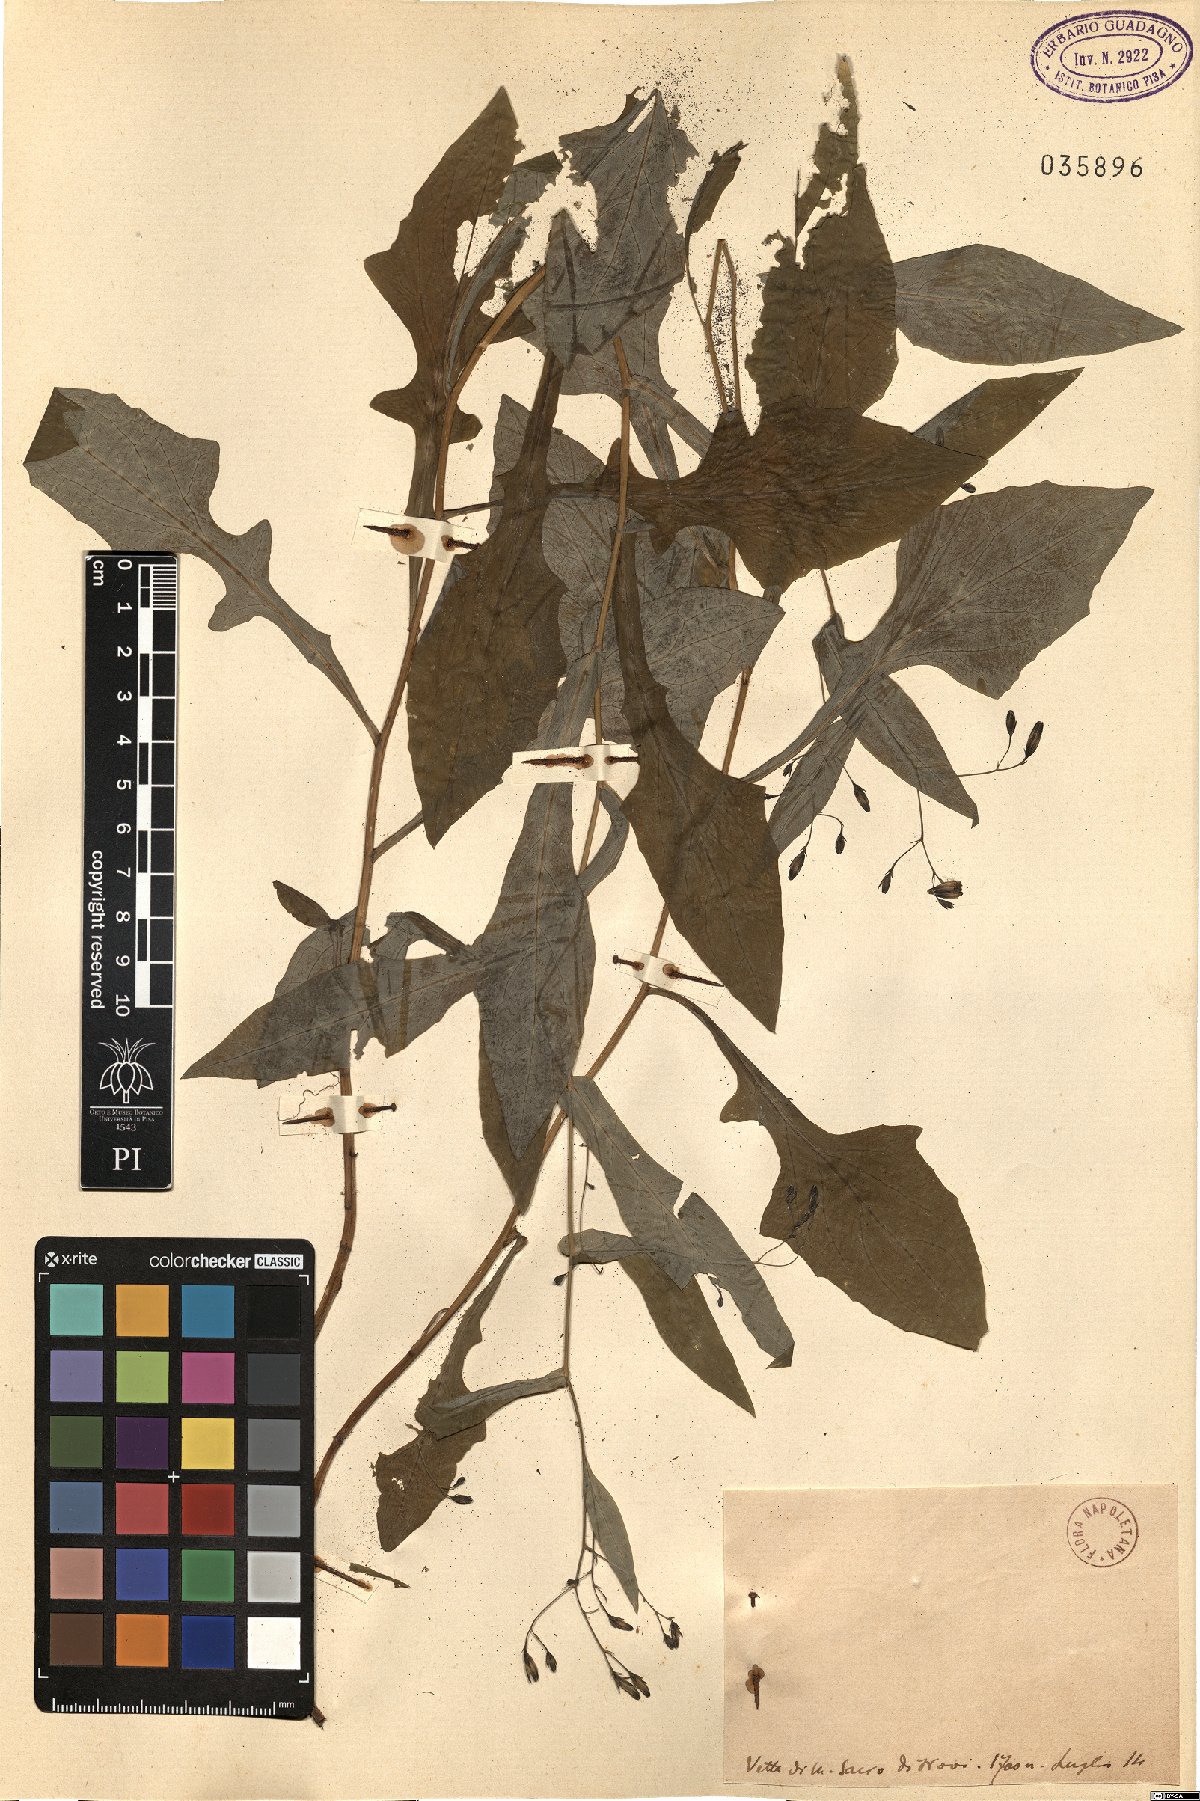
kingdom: Plantae
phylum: Tracheophyta
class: Magnoliopsida
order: Asterales
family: Asteraceae
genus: Prenanthes
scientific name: Prenanthes
